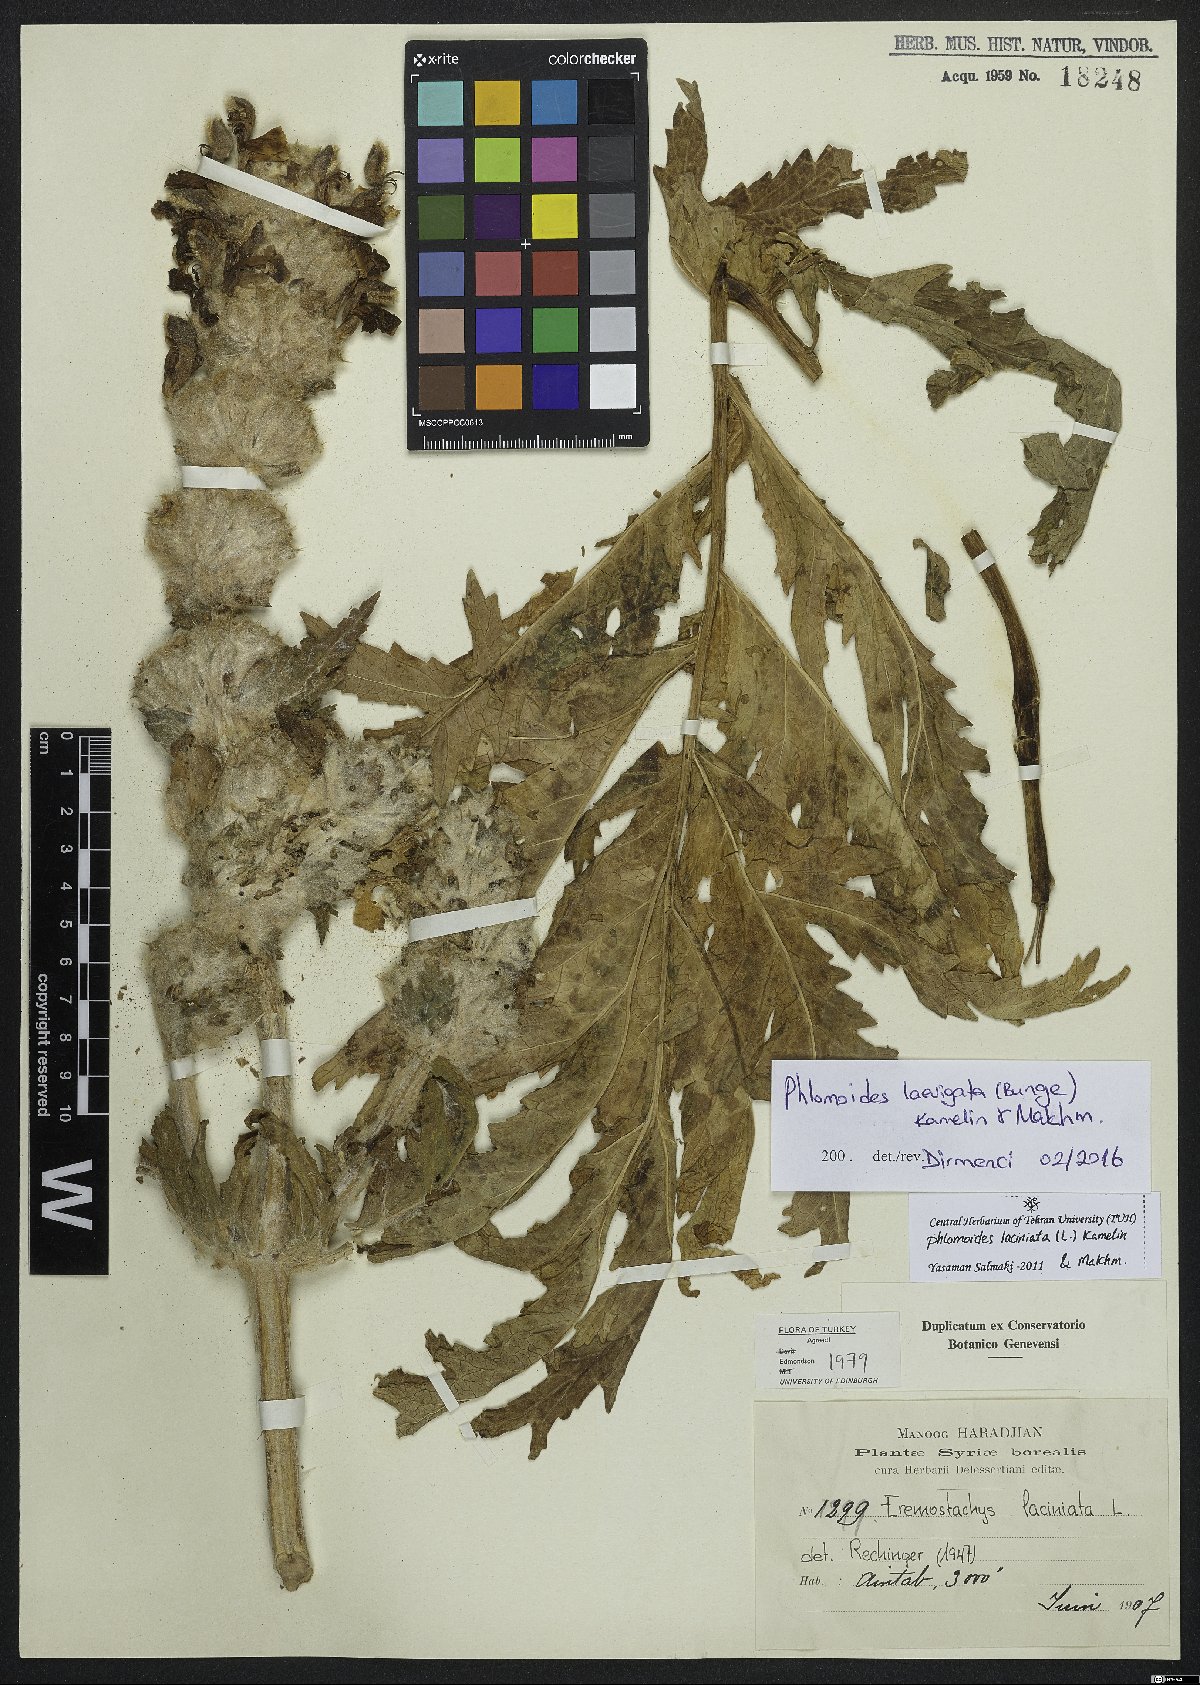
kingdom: Plantae
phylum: Tracheophyta
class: Magnoliopsida
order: Lamiales
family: Lamiaceae
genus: Phlomoides
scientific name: Phlomoides laevigata
